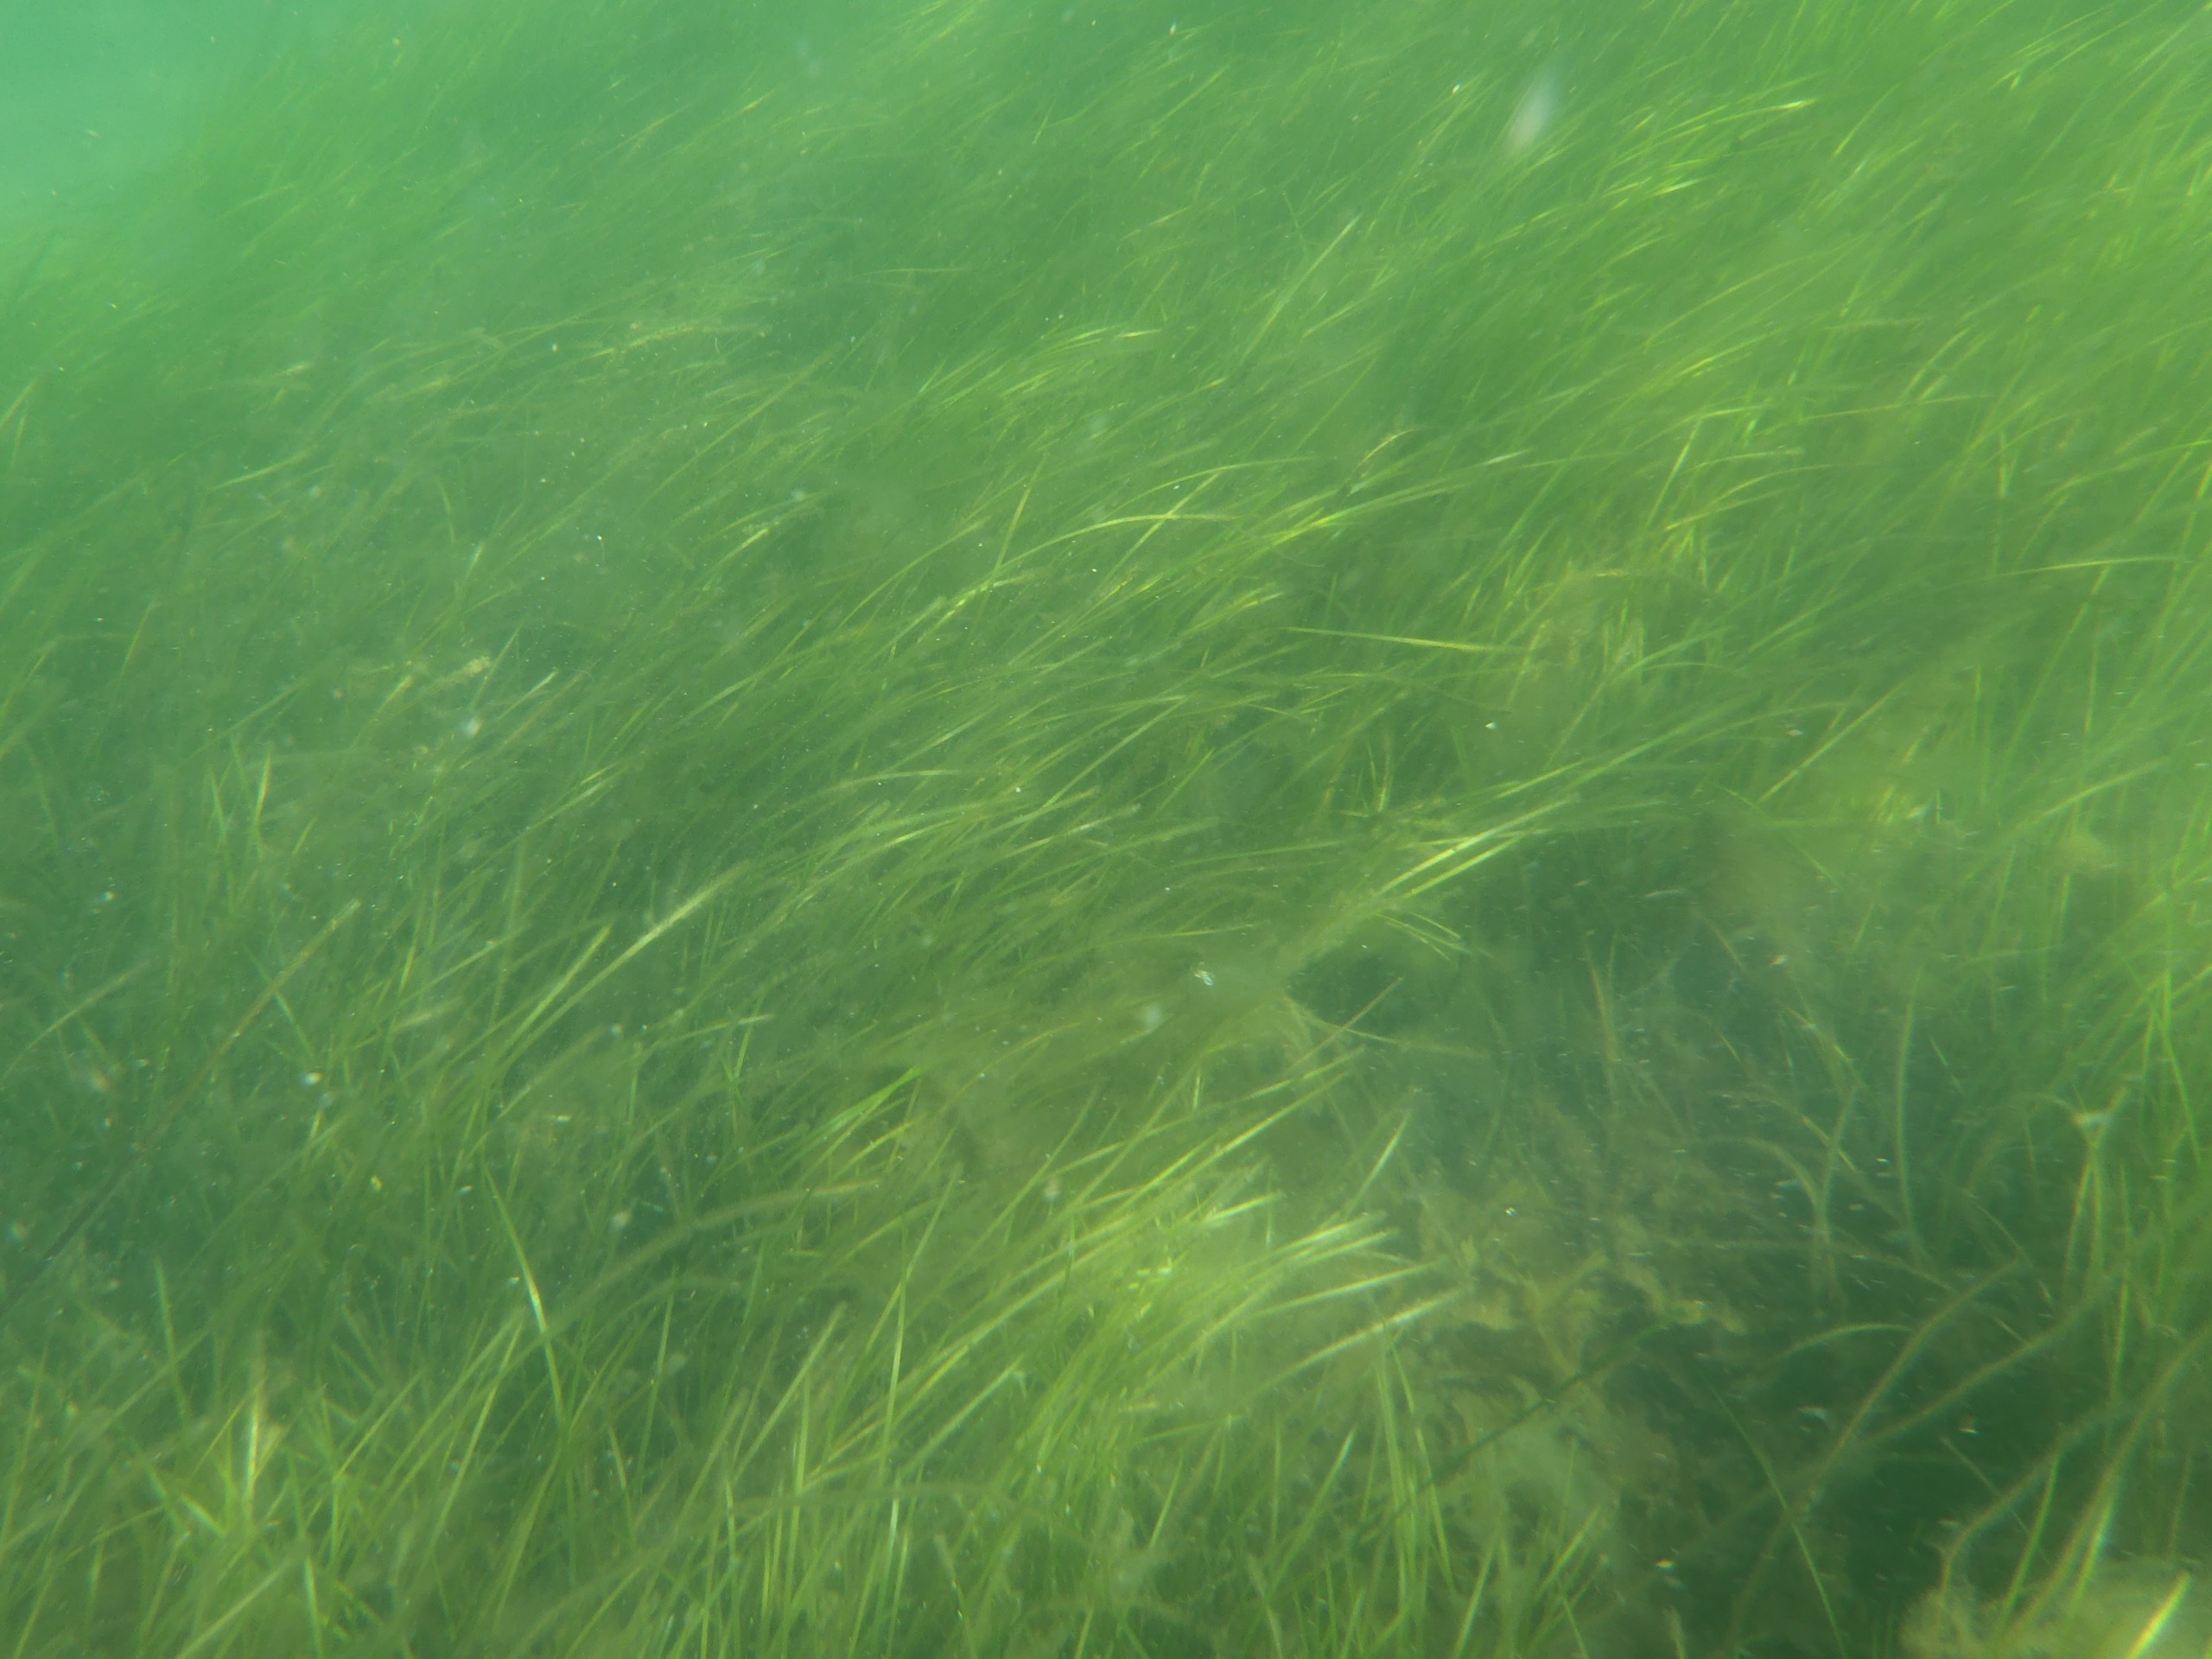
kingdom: Plantae
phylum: Tracheophyta
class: Liliopsida
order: Alismatales
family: Zosteraceae
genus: Zostera
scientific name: Zostera marina
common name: Almindelig bændeltang
